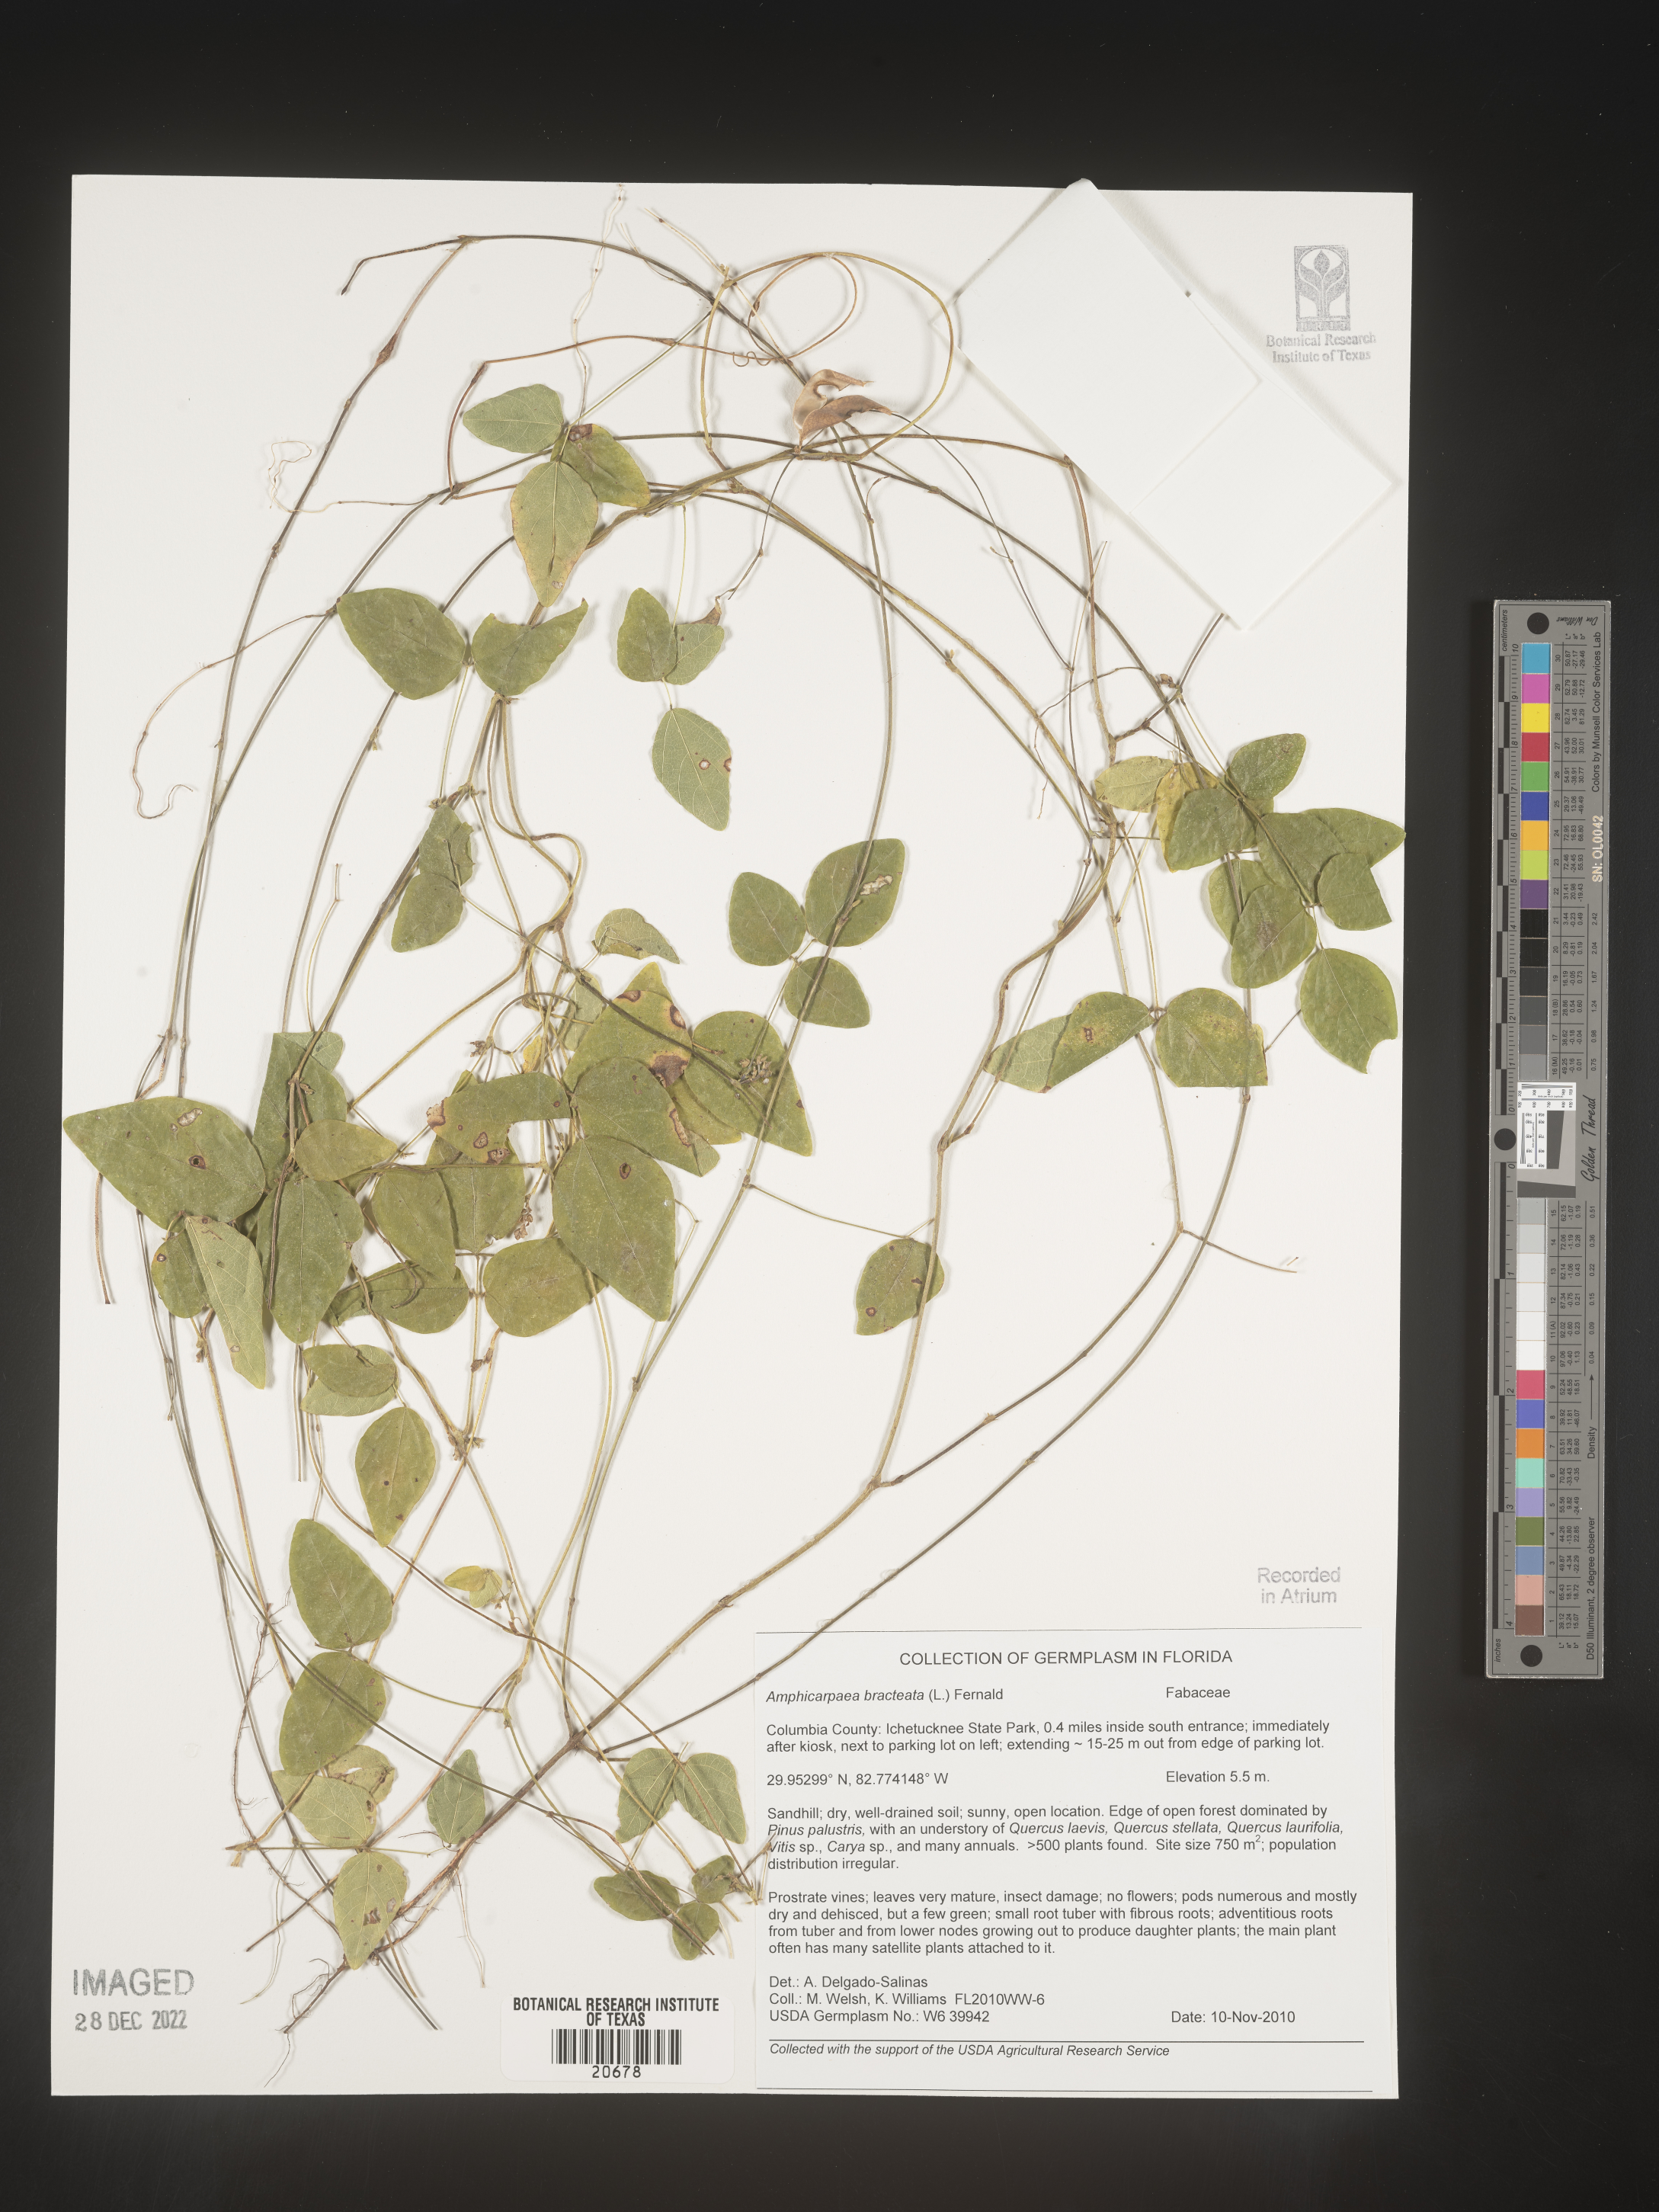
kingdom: Plantae
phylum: Tracheophyta
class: Magnoliopsida
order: Fabales
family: Fabaceae
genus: Amphicarpaea
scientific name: Amphicarpaea bracteata
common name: American hog peanut
